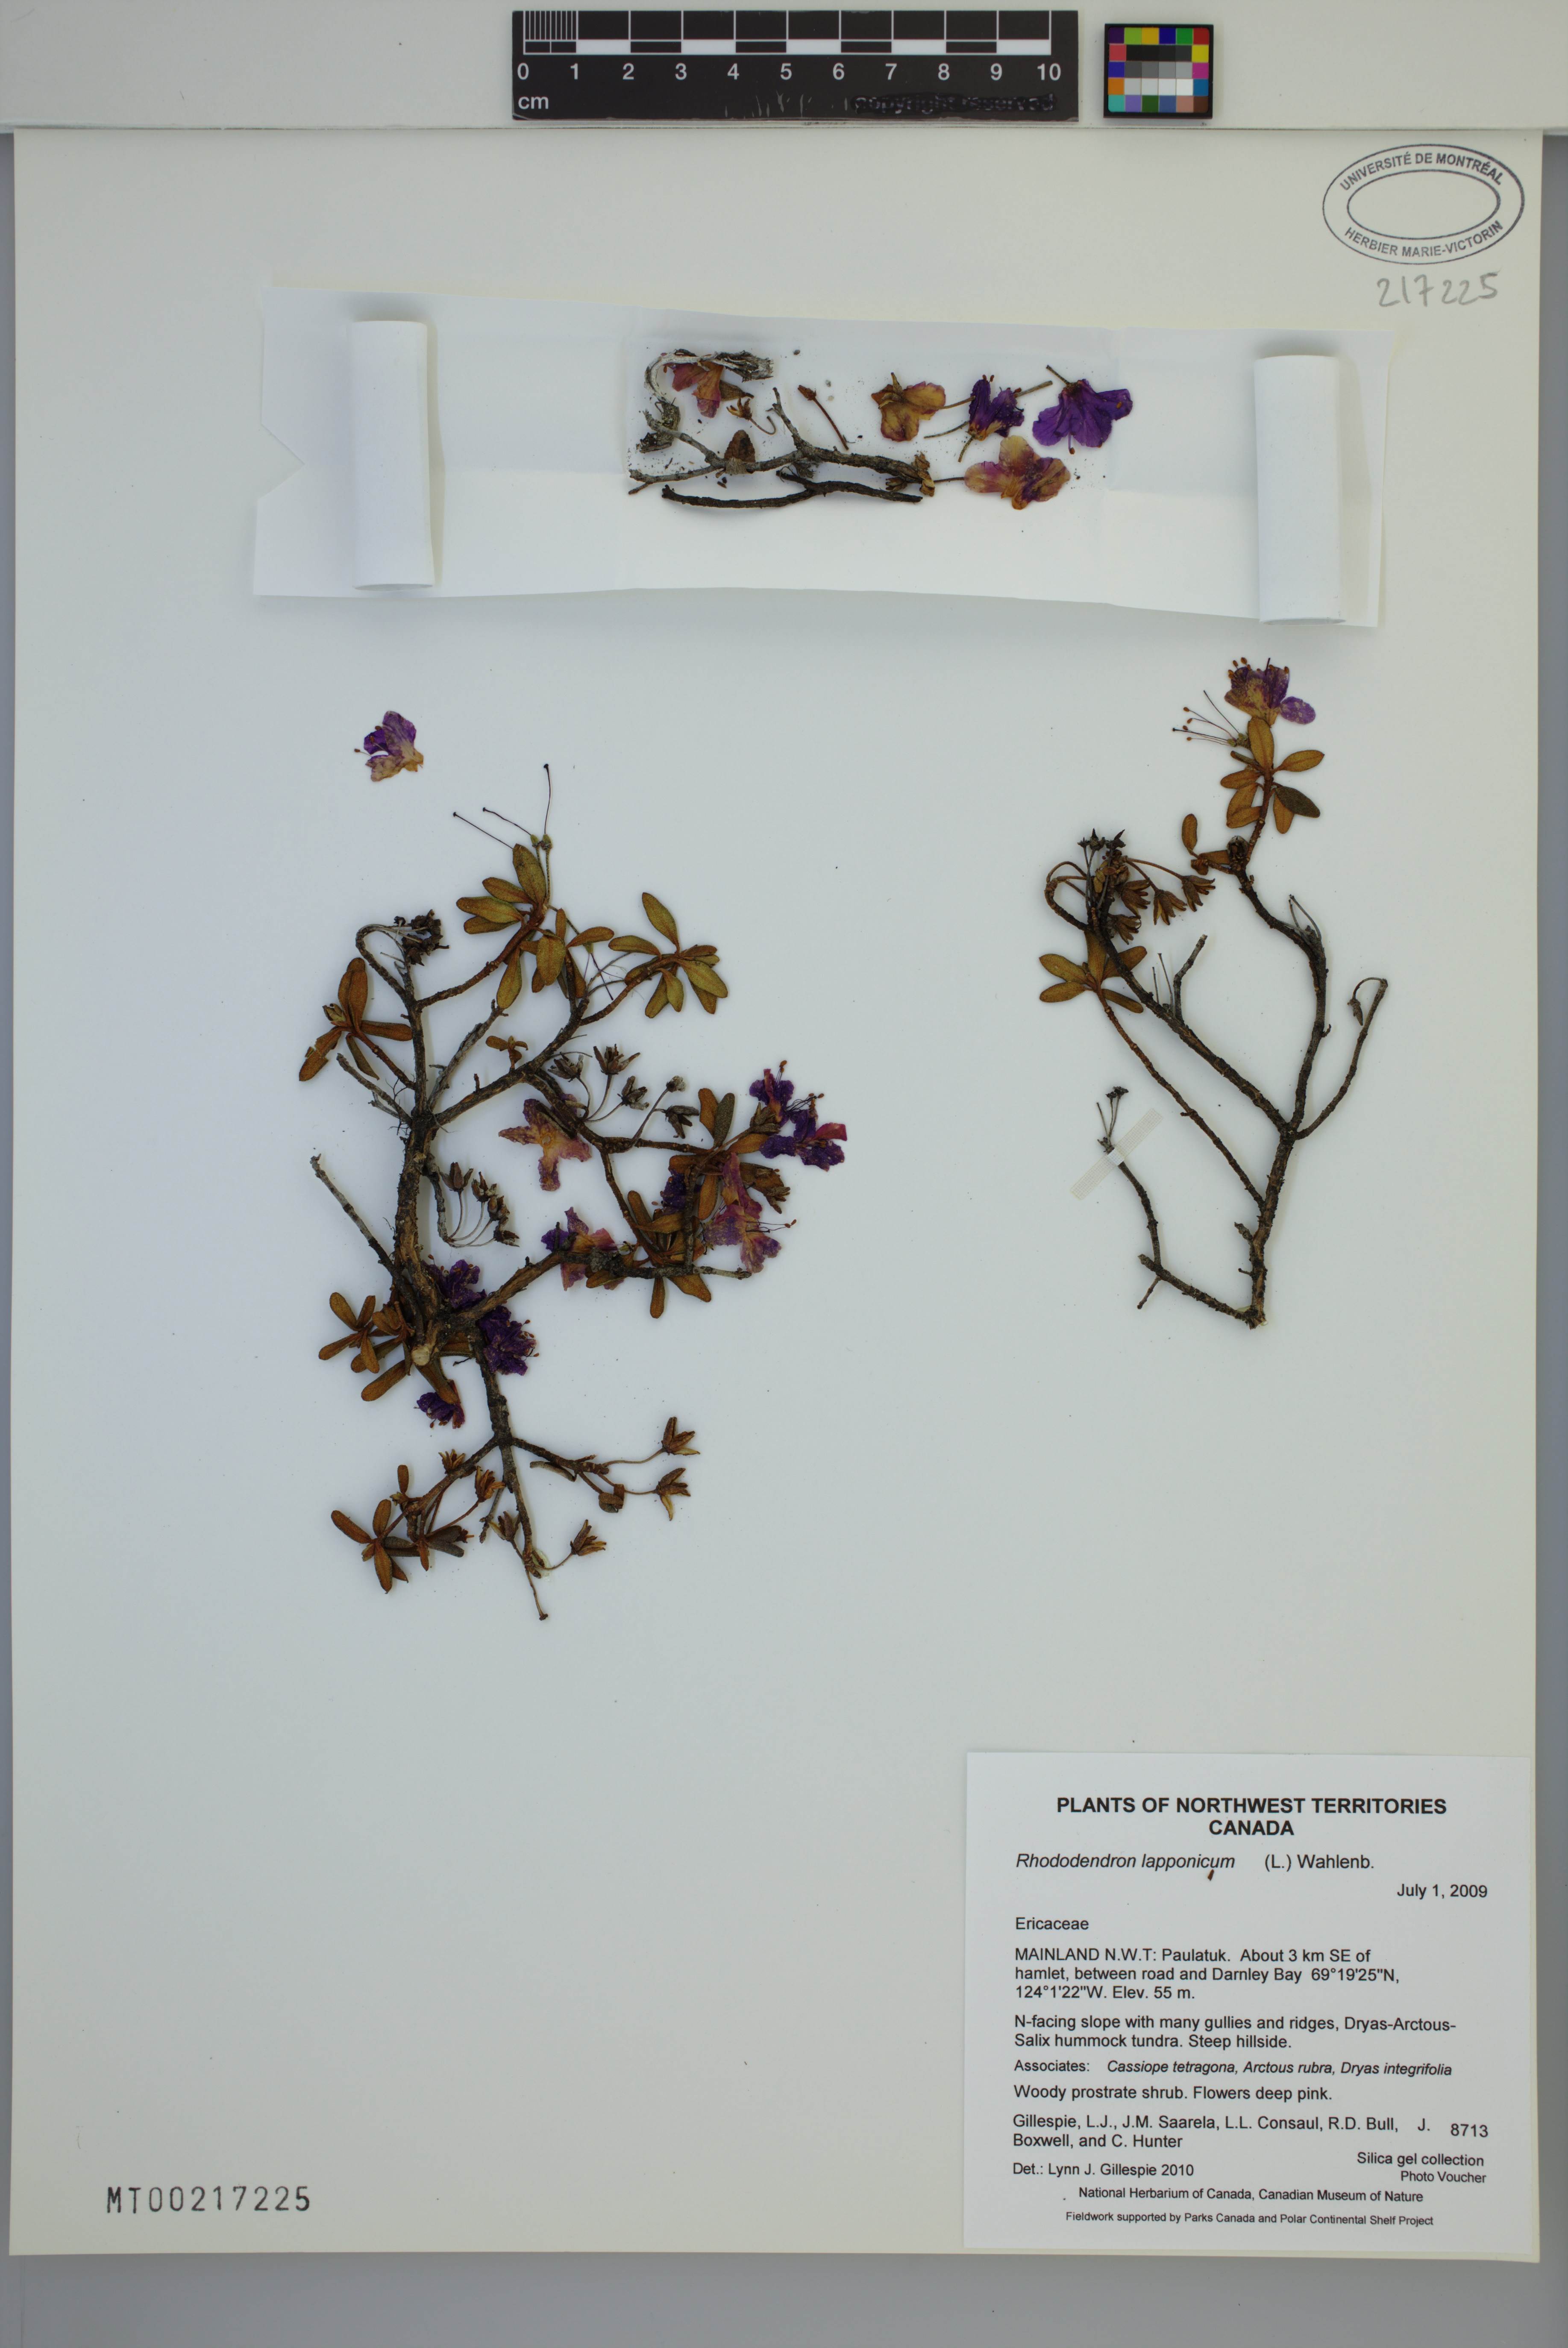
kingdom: Plantae
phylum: Tracheophyta
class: Magnoliopsida
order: Ericales
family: Ericaceae
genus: Rhododendron
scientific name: Rhododendron lapponicum
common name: Lapland rhododendron
